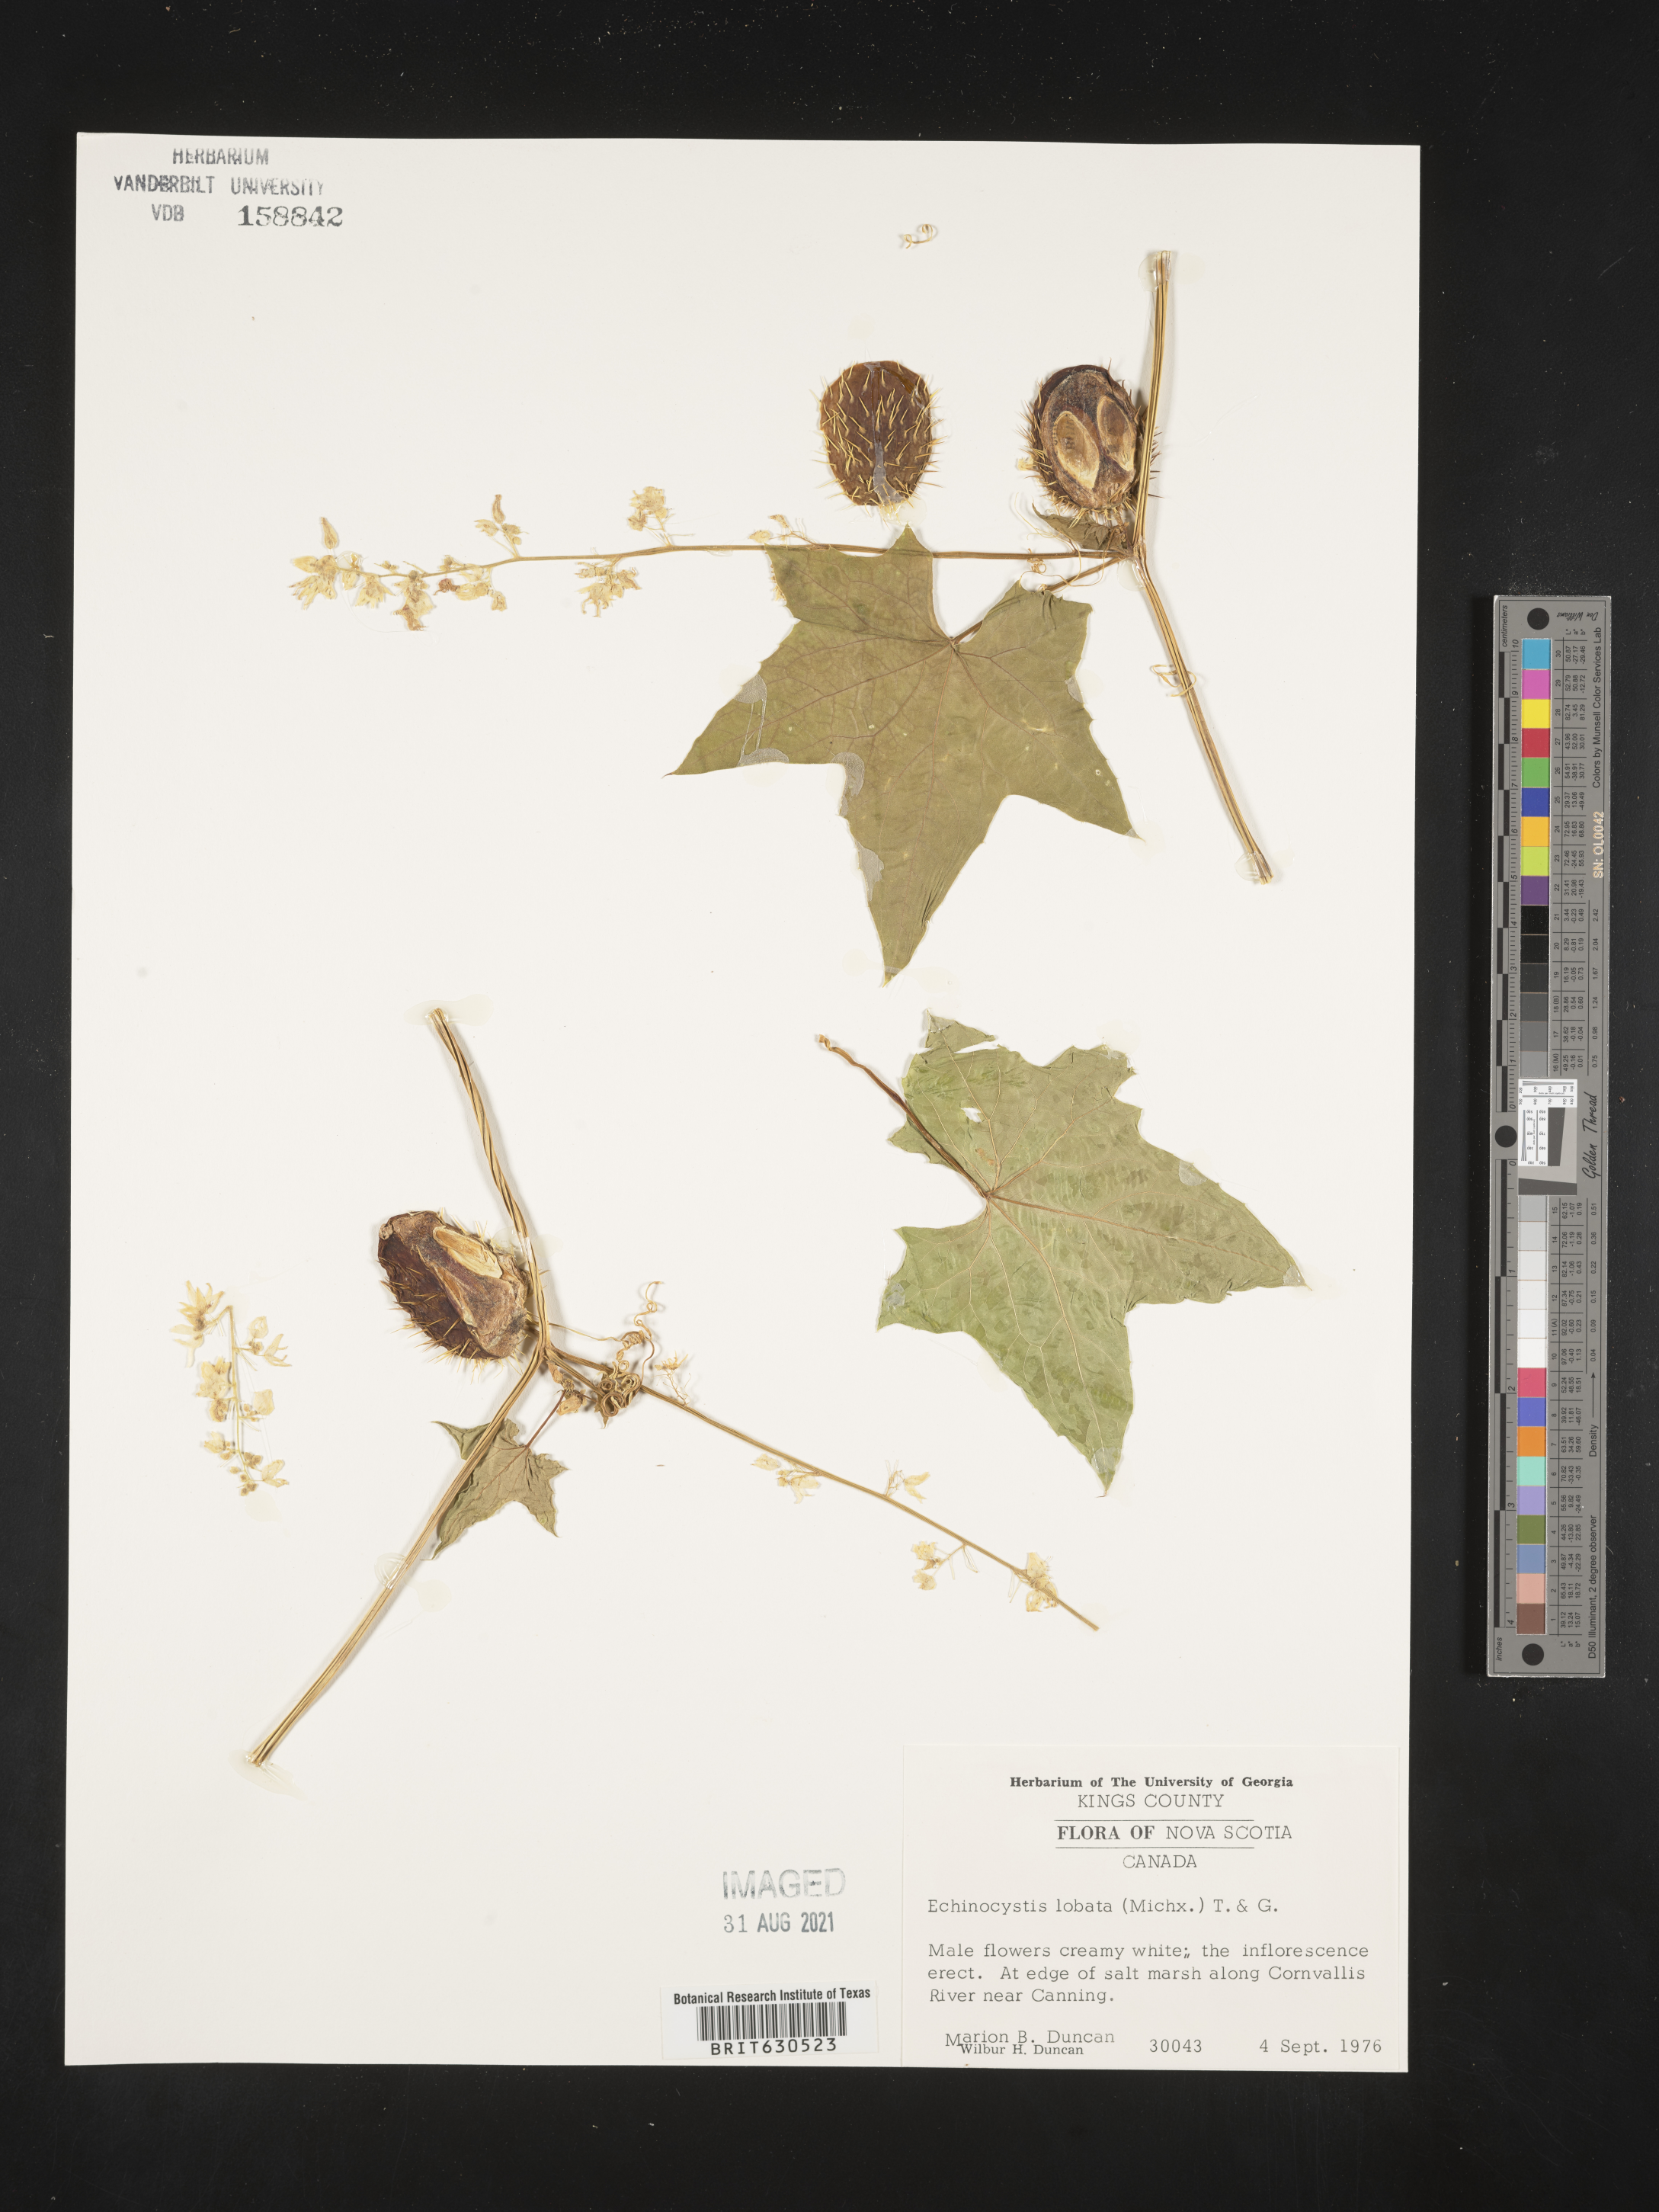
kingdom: Plantae
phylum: Tracheophyta
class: Magnoliopsida
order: Cucurbitales
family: Cucurbitaceae
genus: Echinocystis
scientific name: Echinocystis lobata
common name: Wild cucumber
